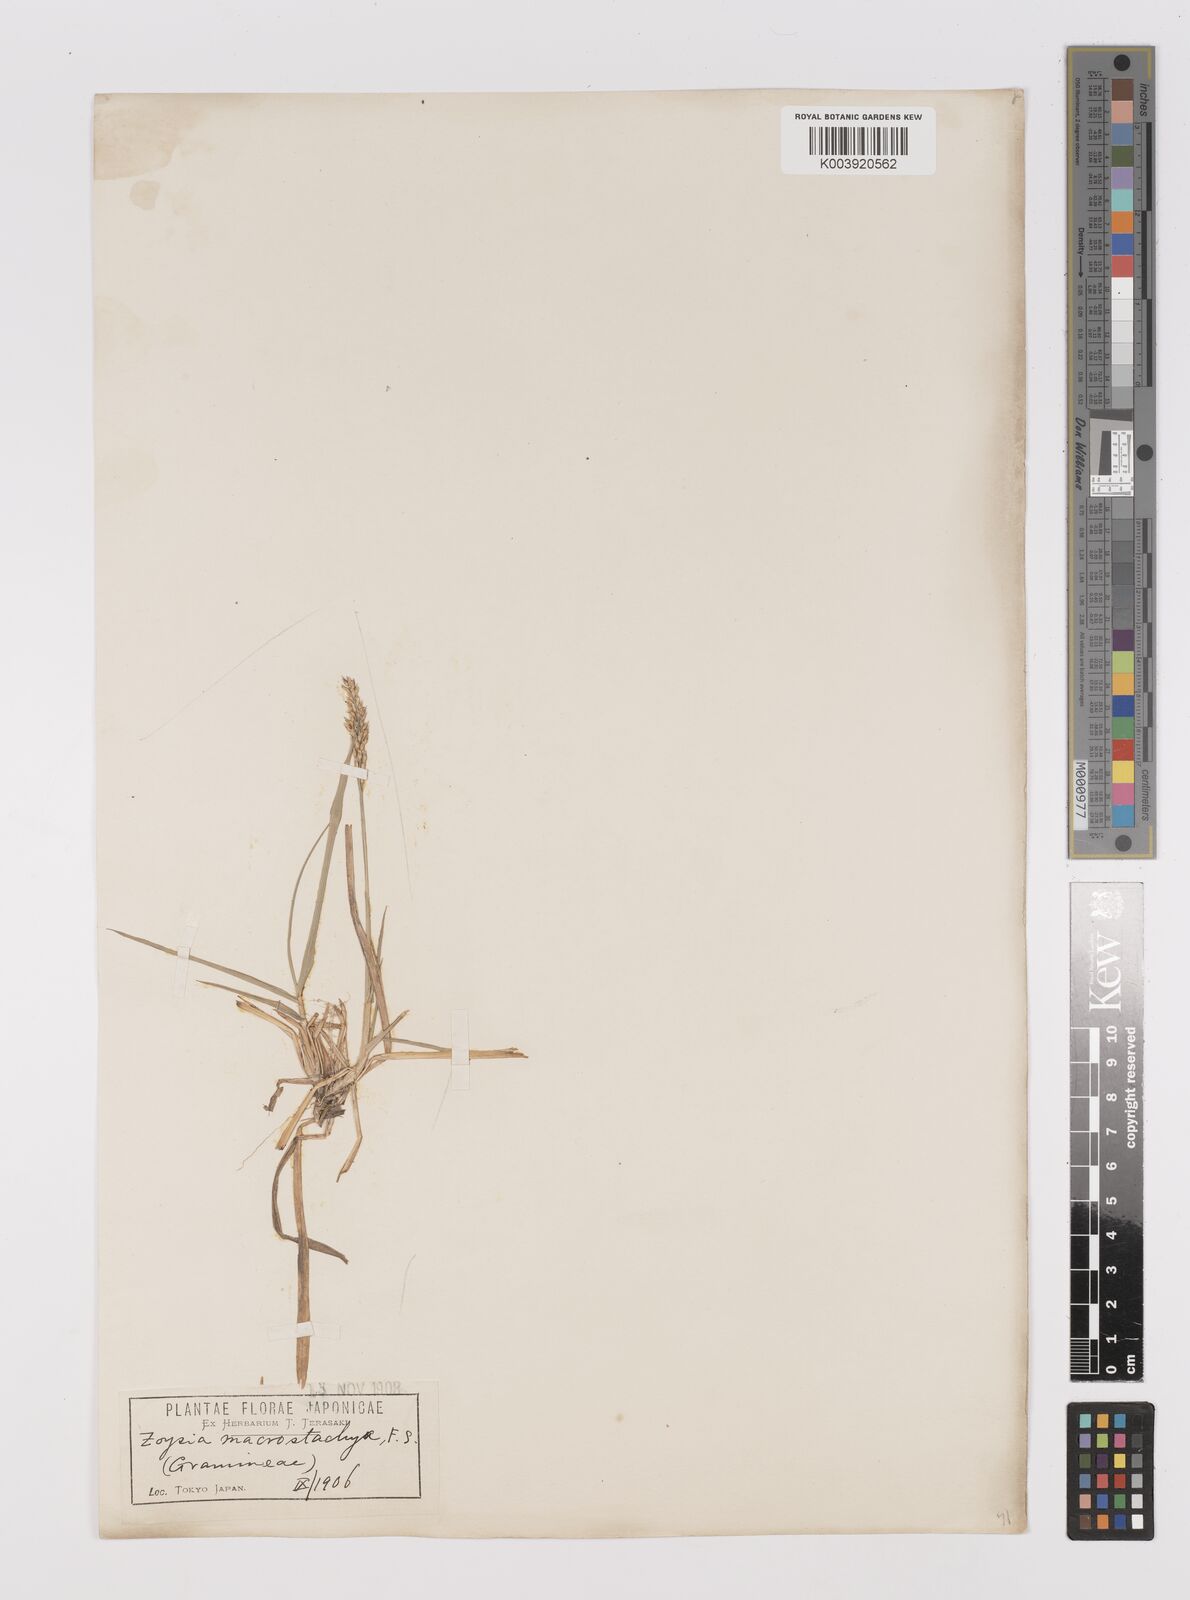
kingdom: Plantae
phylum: Tracheophyta
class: Liliopsida
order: Poales
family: Poaceae
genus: Zoysia
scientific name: Zoysia japonica
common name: Korean lawngrass
